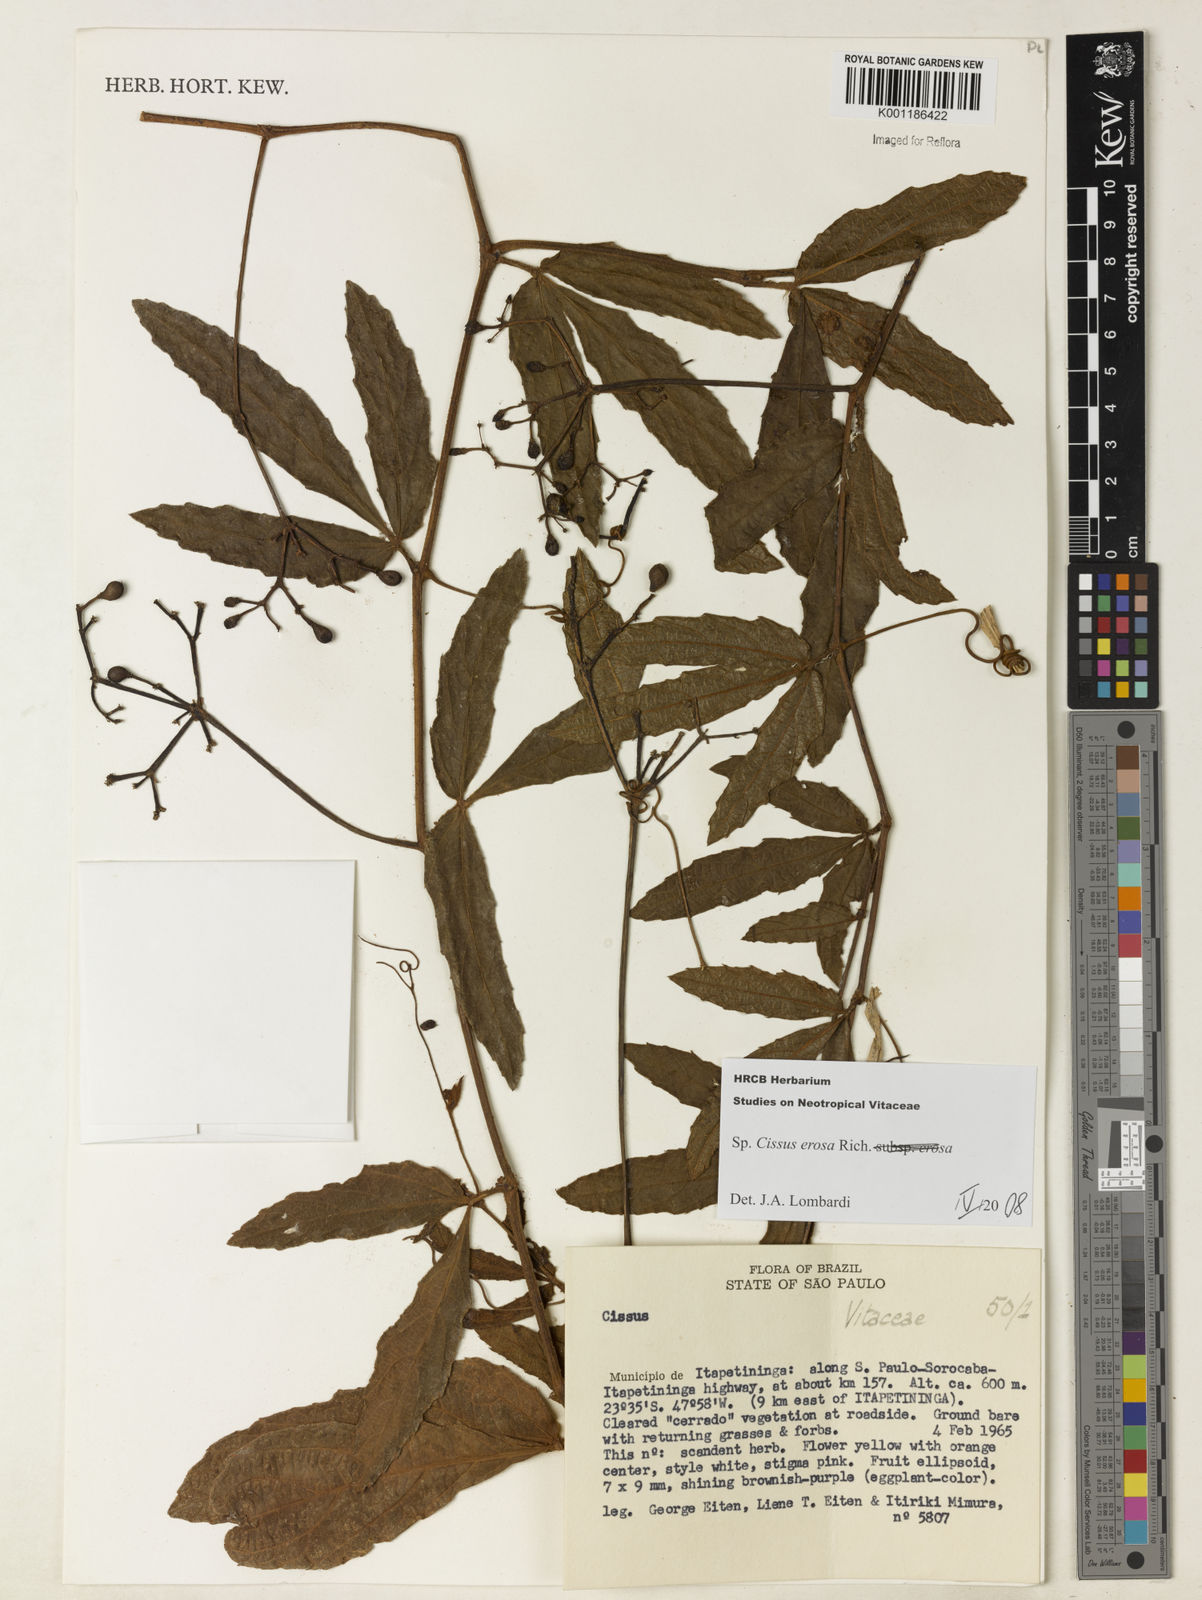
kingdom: Plantae
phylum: Tracheophyta
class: Magnoliopsida
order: Vitales
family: Vitaceae
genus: Cissus
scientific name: Cissus erosa
